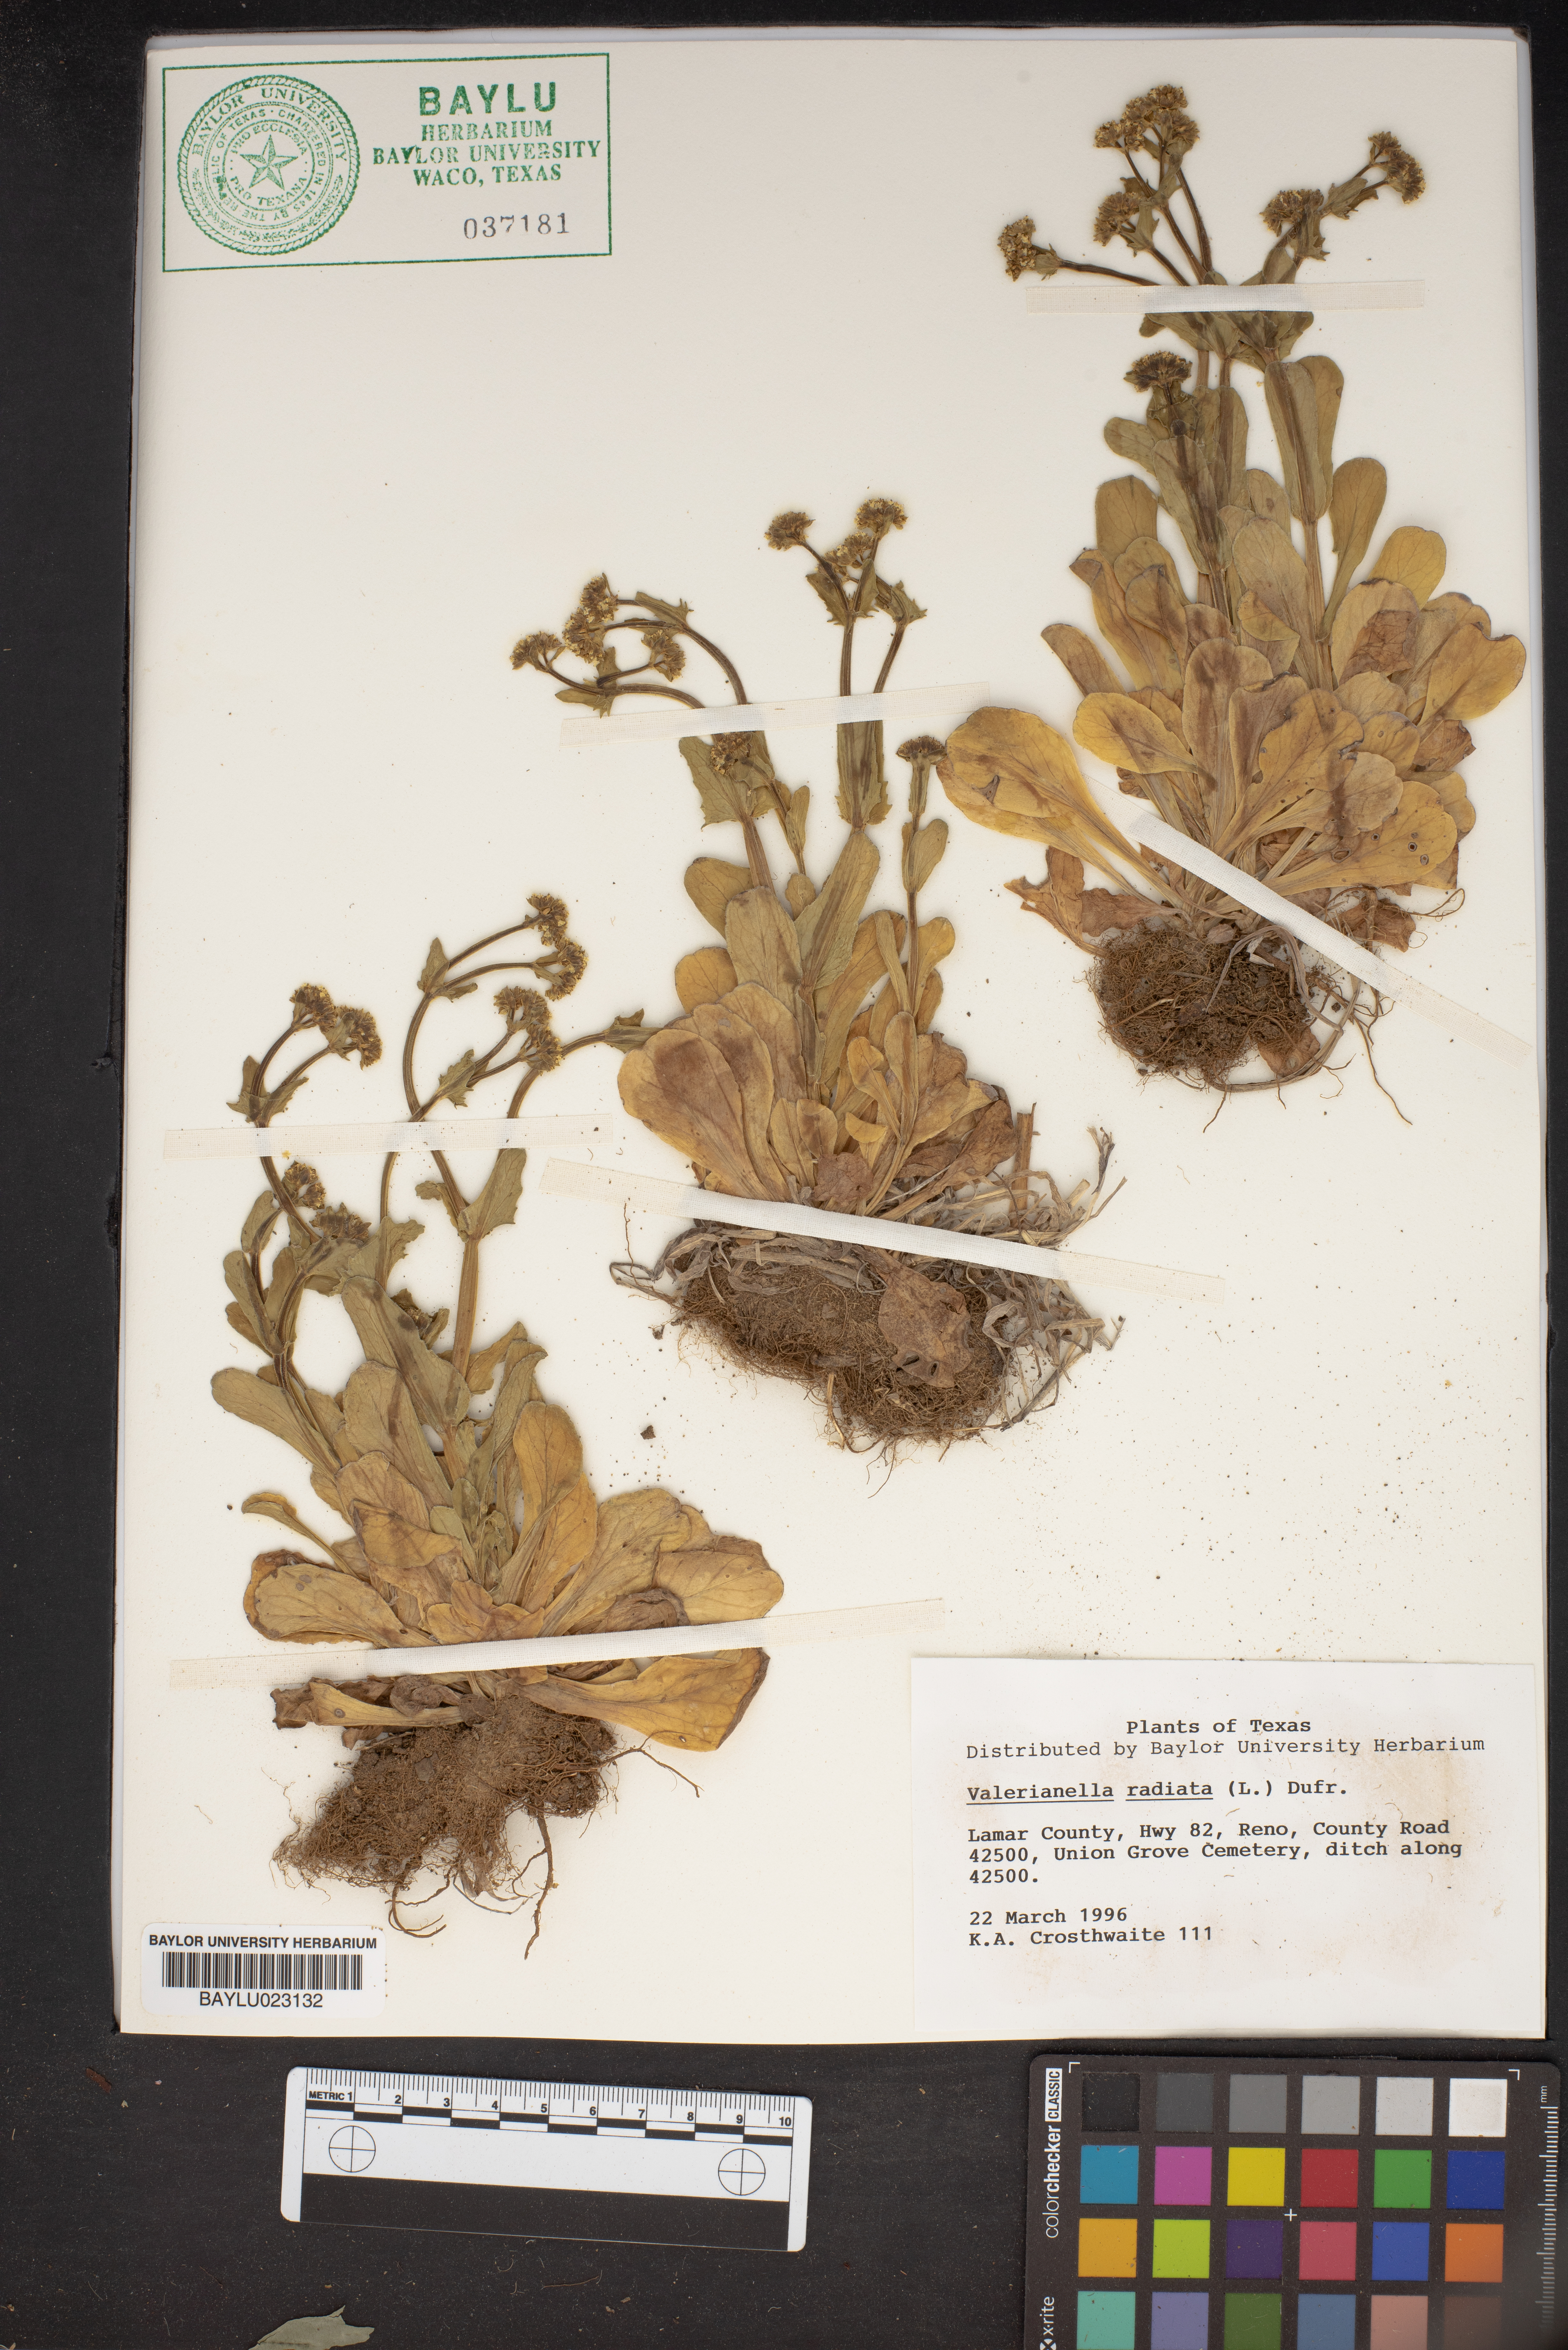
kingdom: Plantae
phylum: Tracheophyta
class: Magnoliopsida
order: Dipsacales
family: Caprifoliaceae
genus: Valerianella
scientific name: Valerianella radiata
